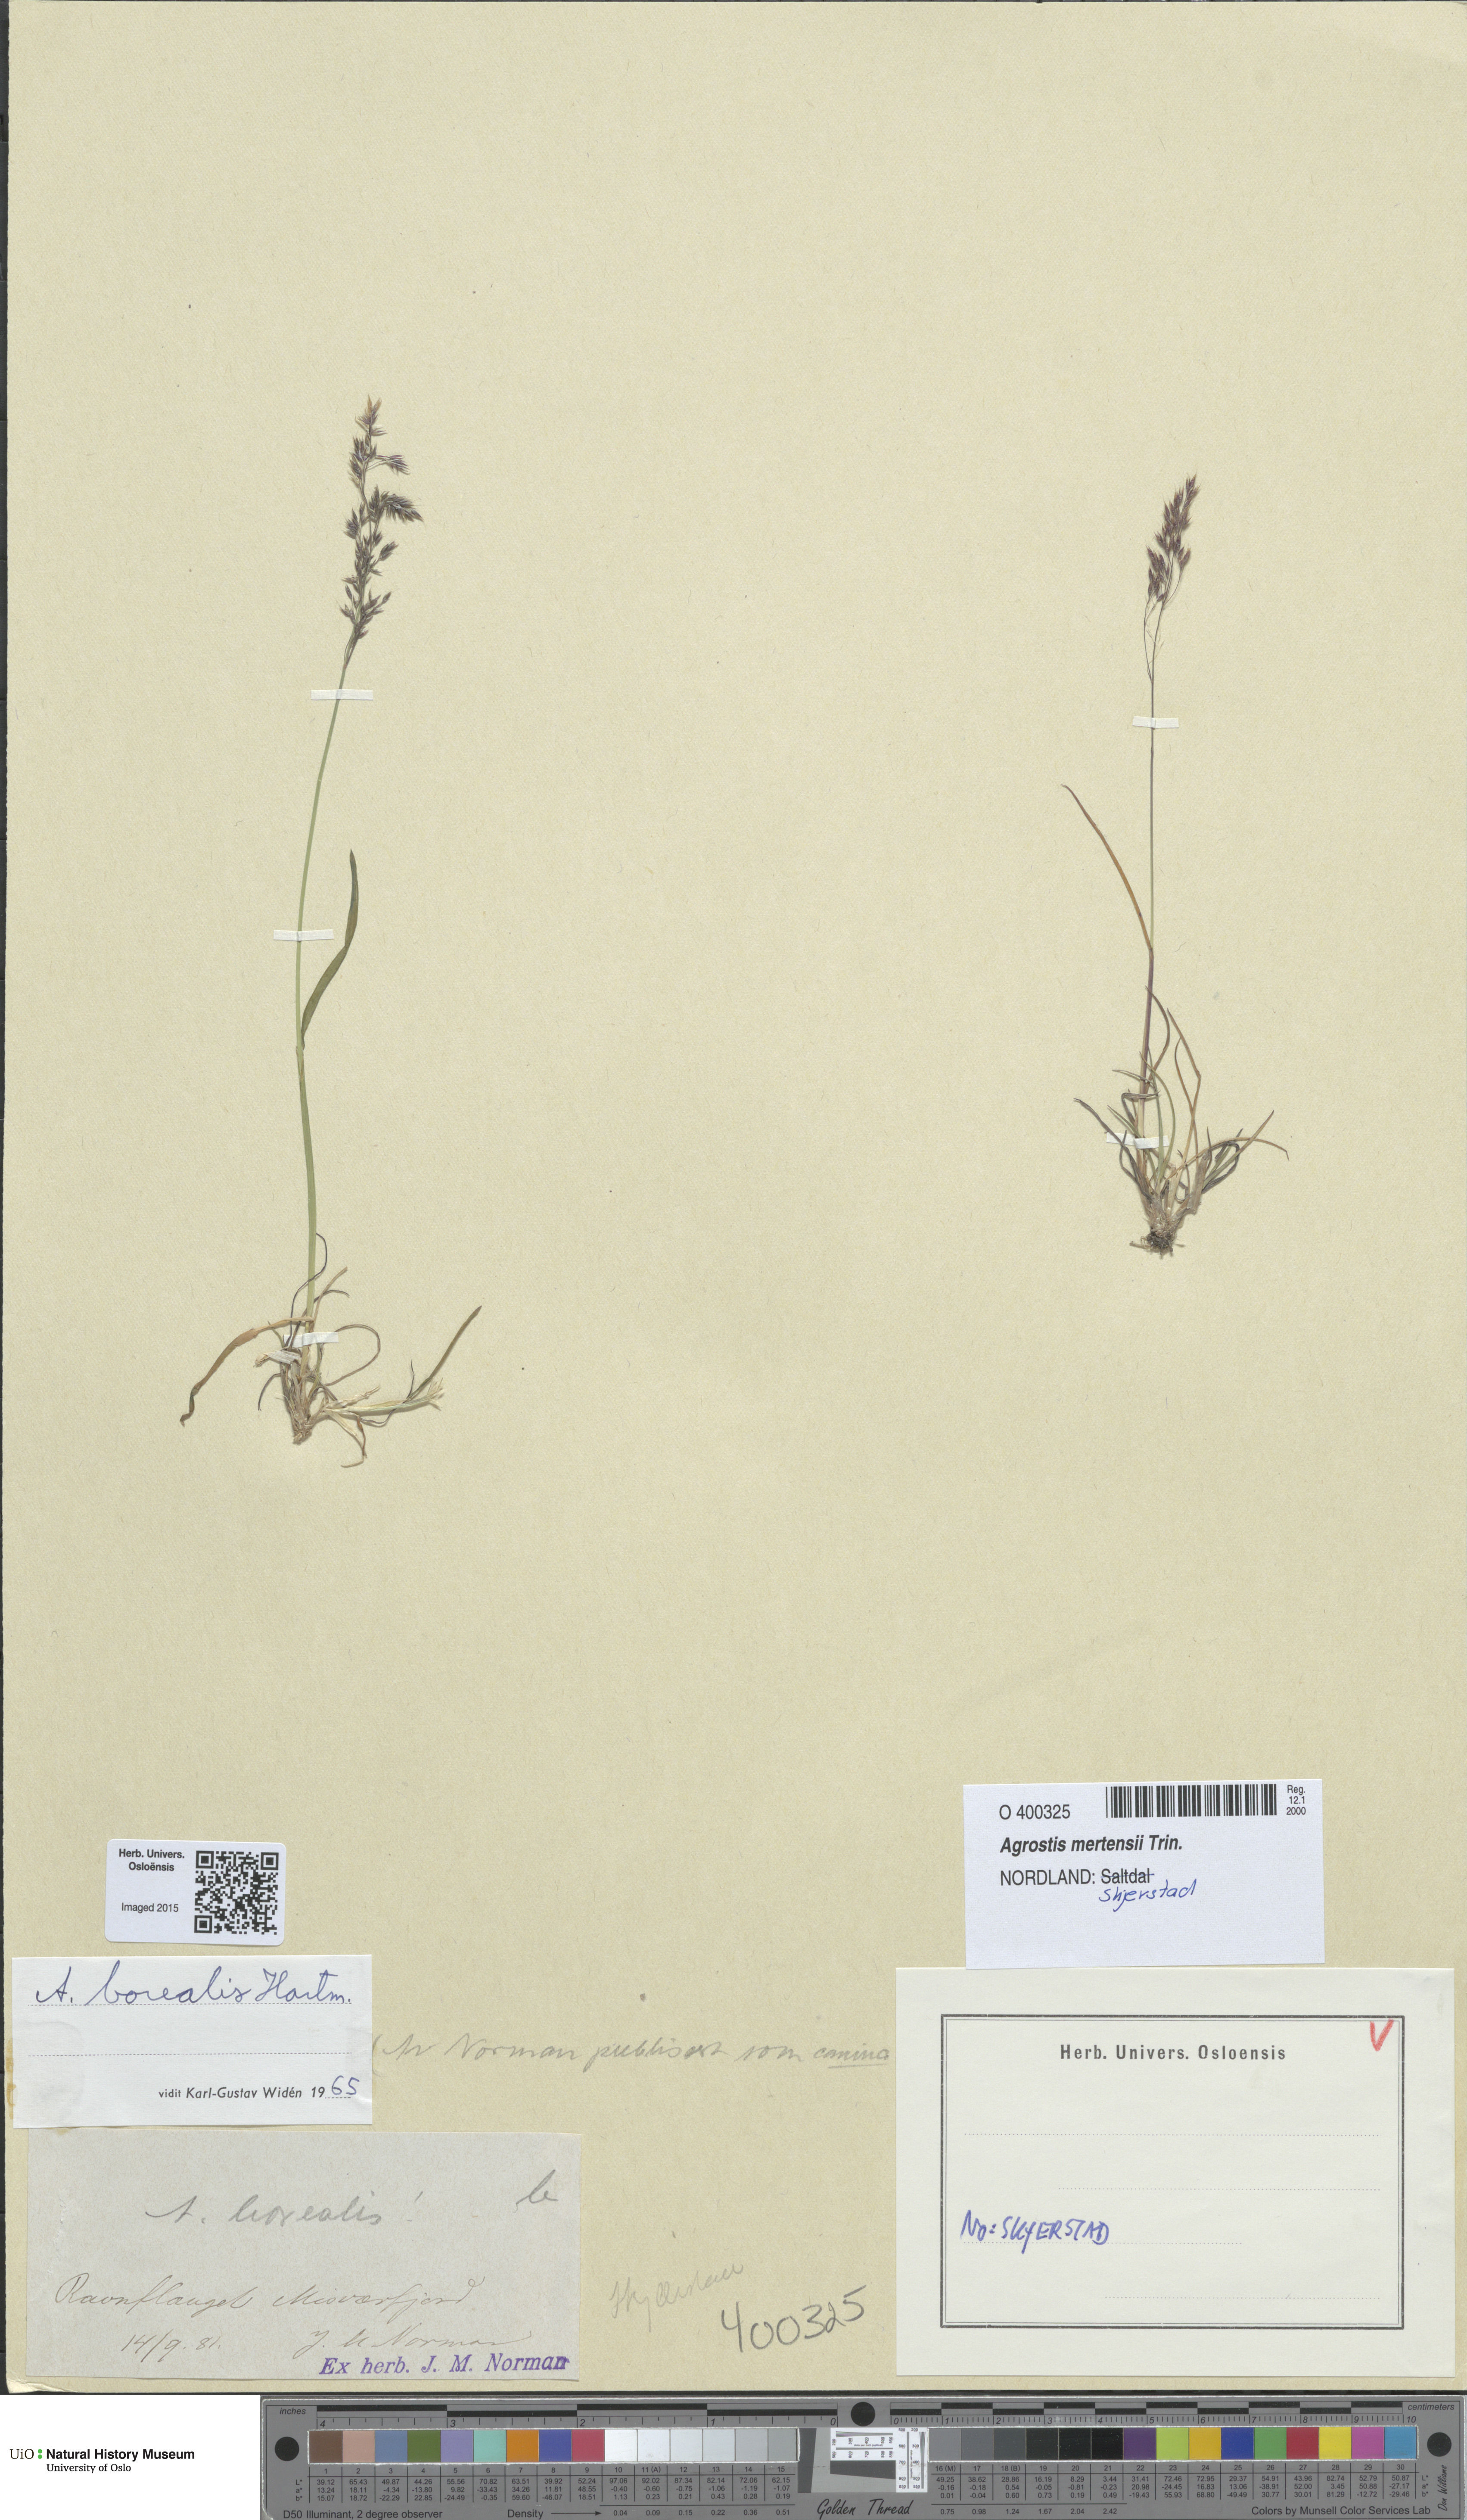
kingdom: Plantae
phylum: Tracheophyta
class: Liliopsida
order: Poales
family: Poaceae
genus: Agrostis
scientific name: Agrostis mertensii
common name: Northern bent
